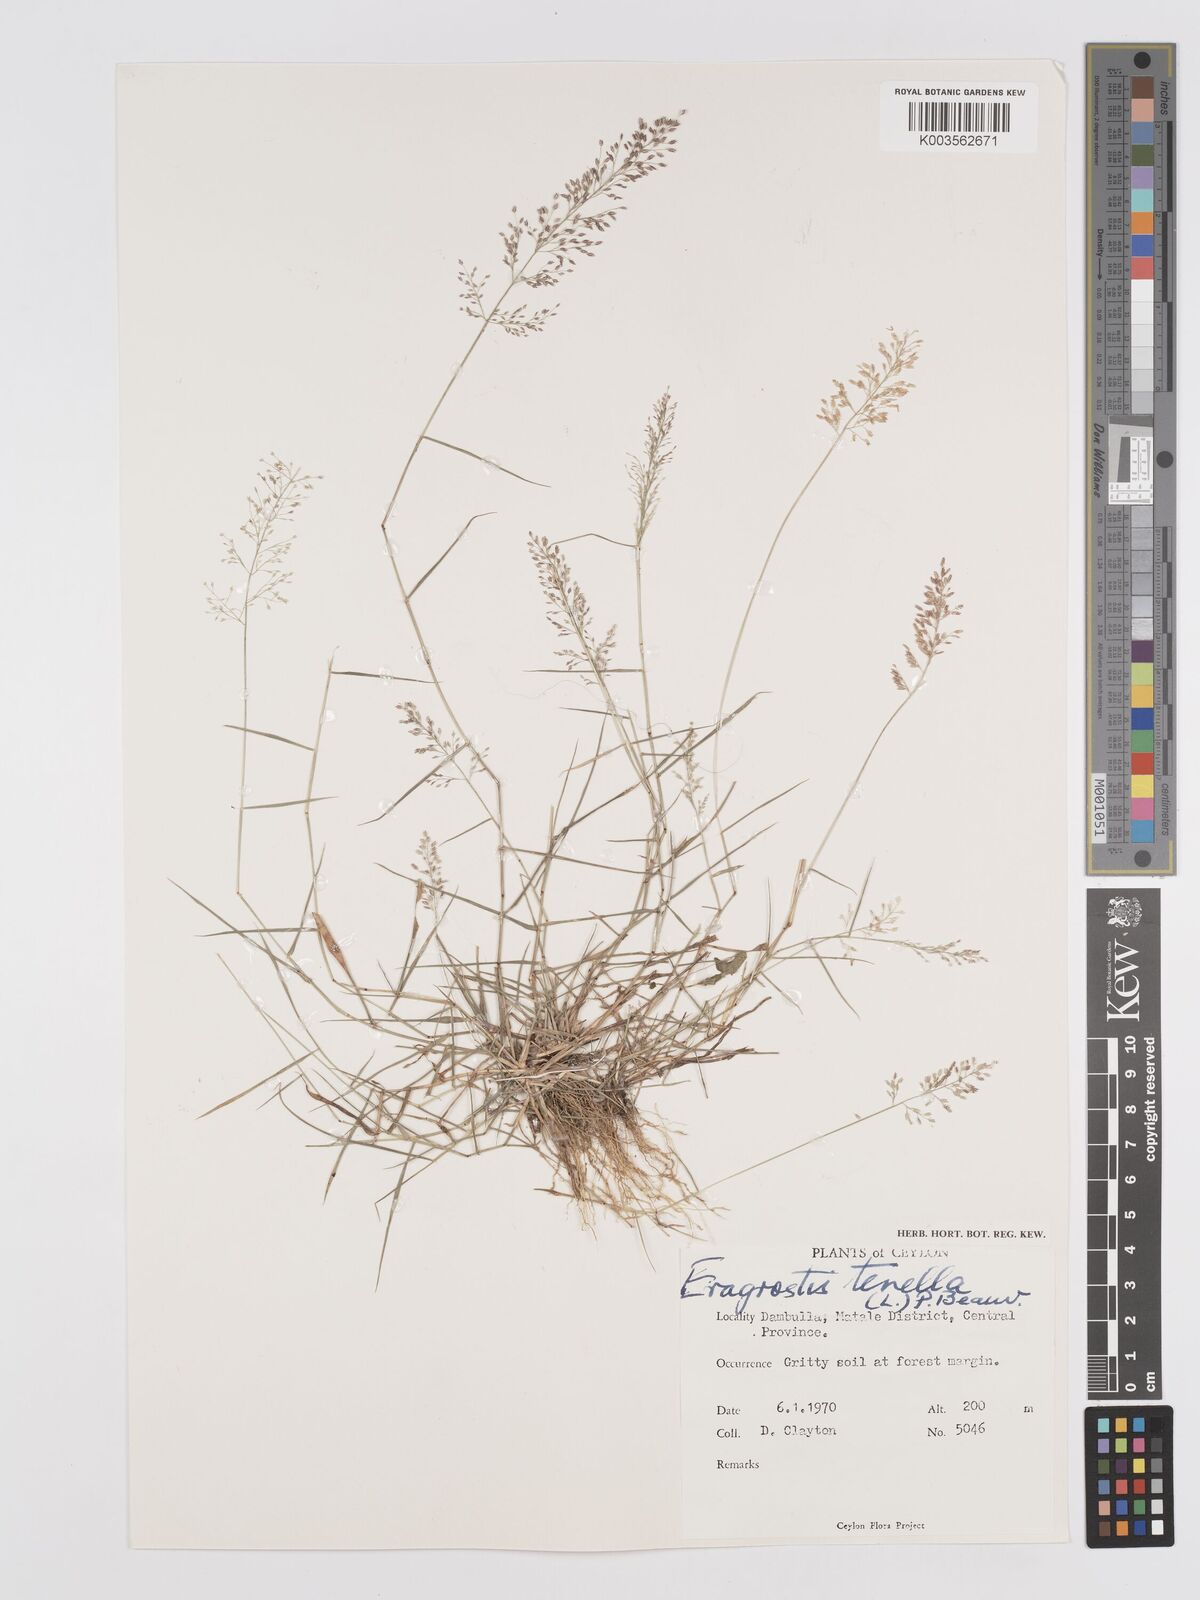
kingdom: Plantae
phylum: Tracheophyta
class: Liliopsida
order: Poales
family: Poaceae
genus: Eragrostis
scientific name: Eragrostis tenella
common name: Japanese lovegrass
